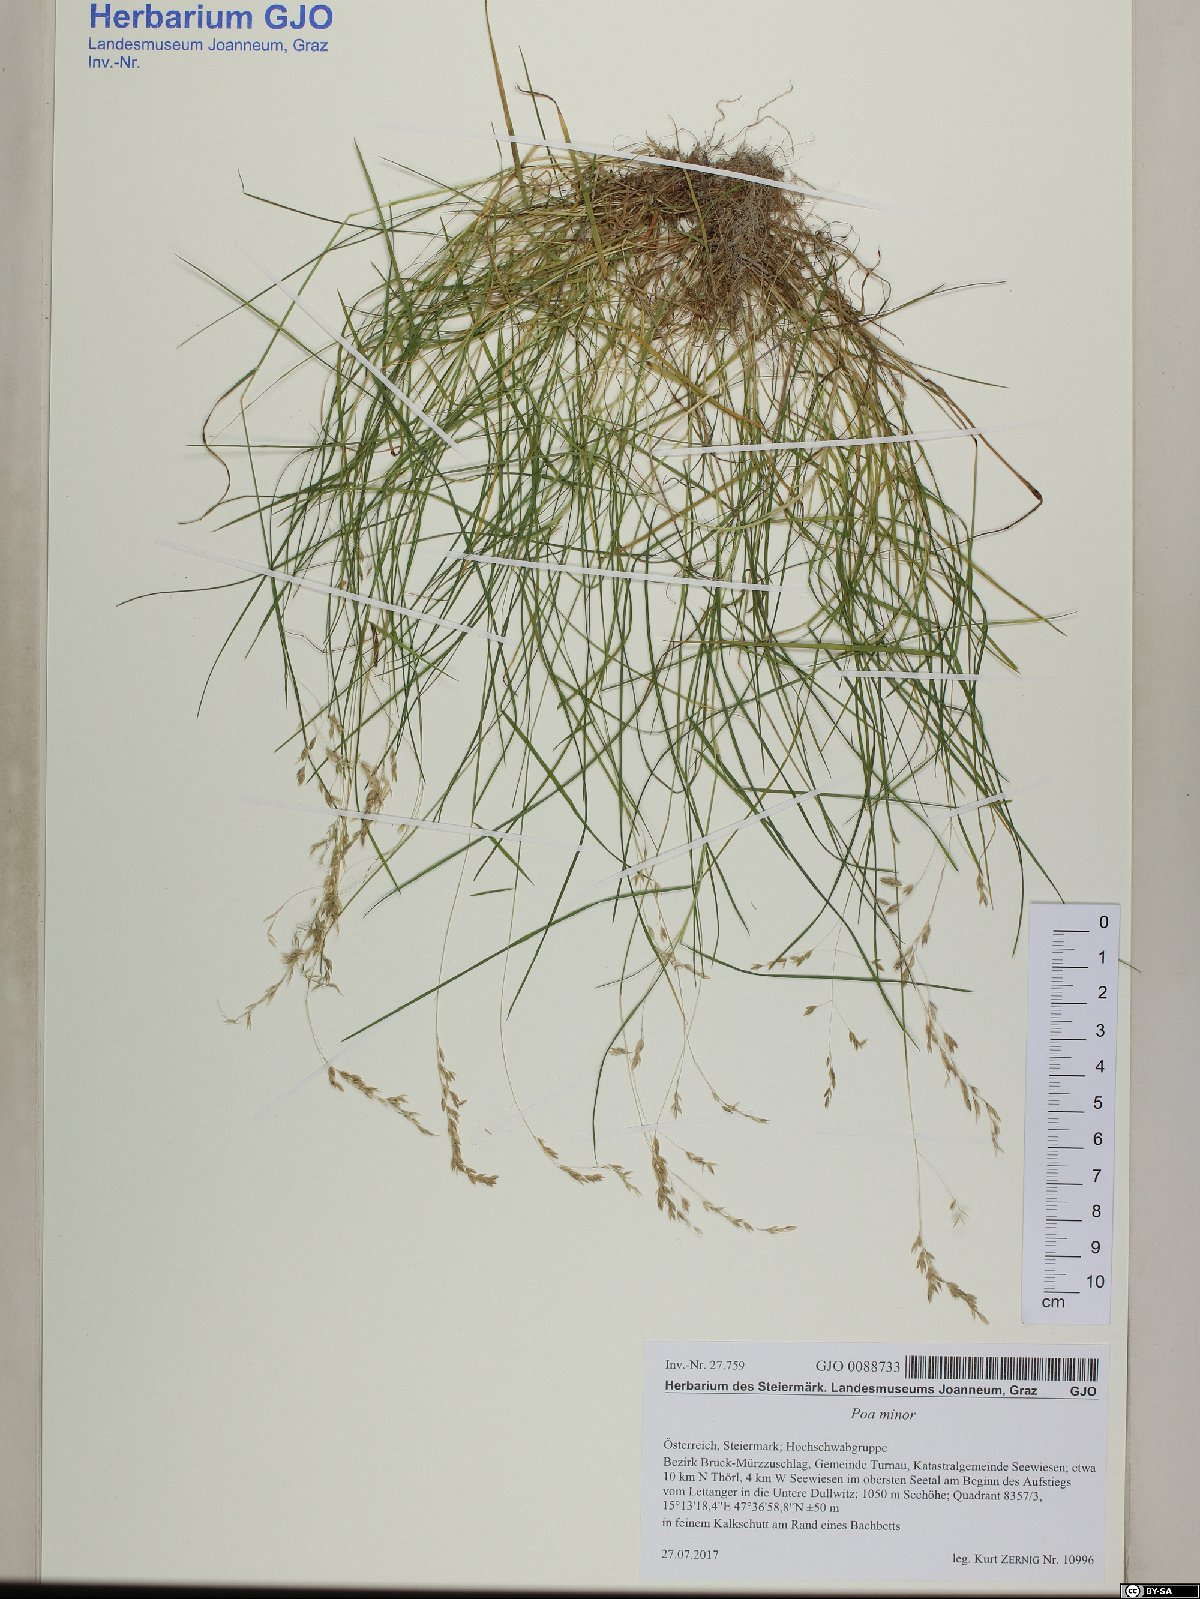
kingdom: Plantae
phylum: Tracheophyta
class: Liliopsida
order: Poales
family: Poaceae
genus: Poa
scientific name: Poa minor
